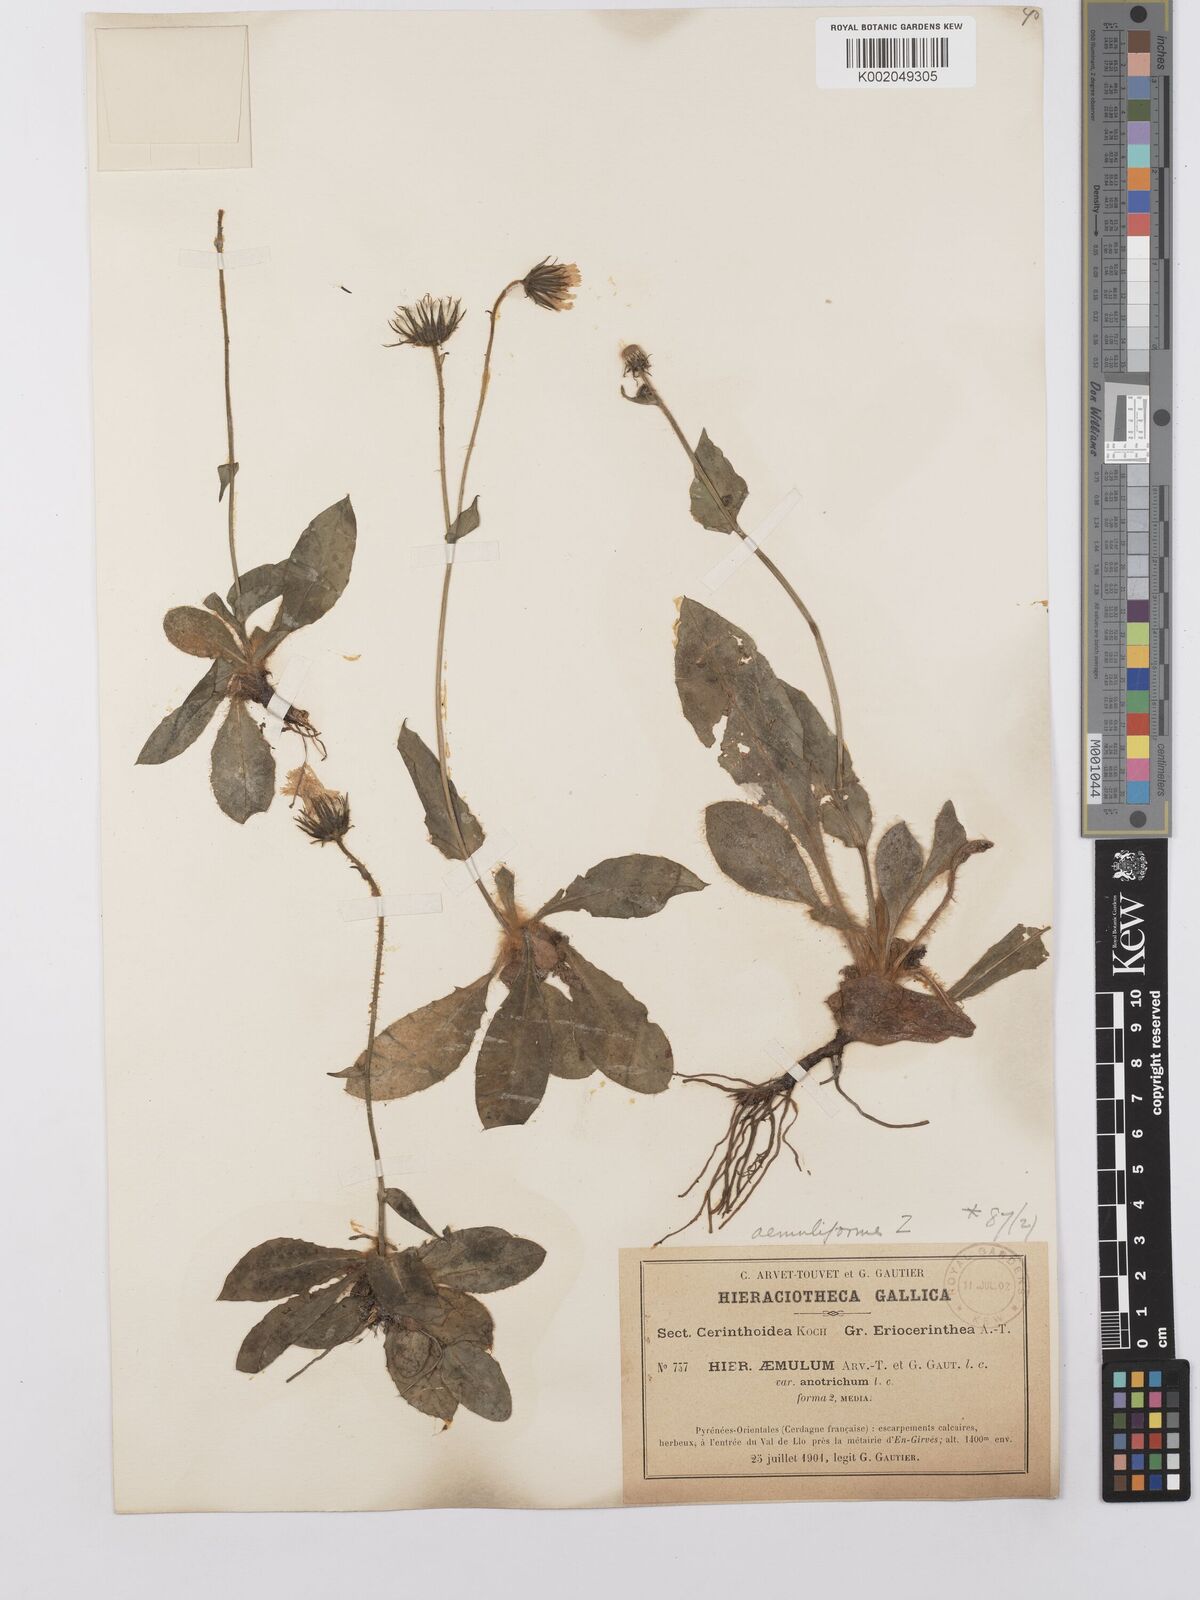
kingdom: Plantae
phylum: Tracheophyta
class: Magnoliopsida
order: Asterales
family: Asteraceae
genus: Hieracium
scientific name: Hieracium aemuliforme
